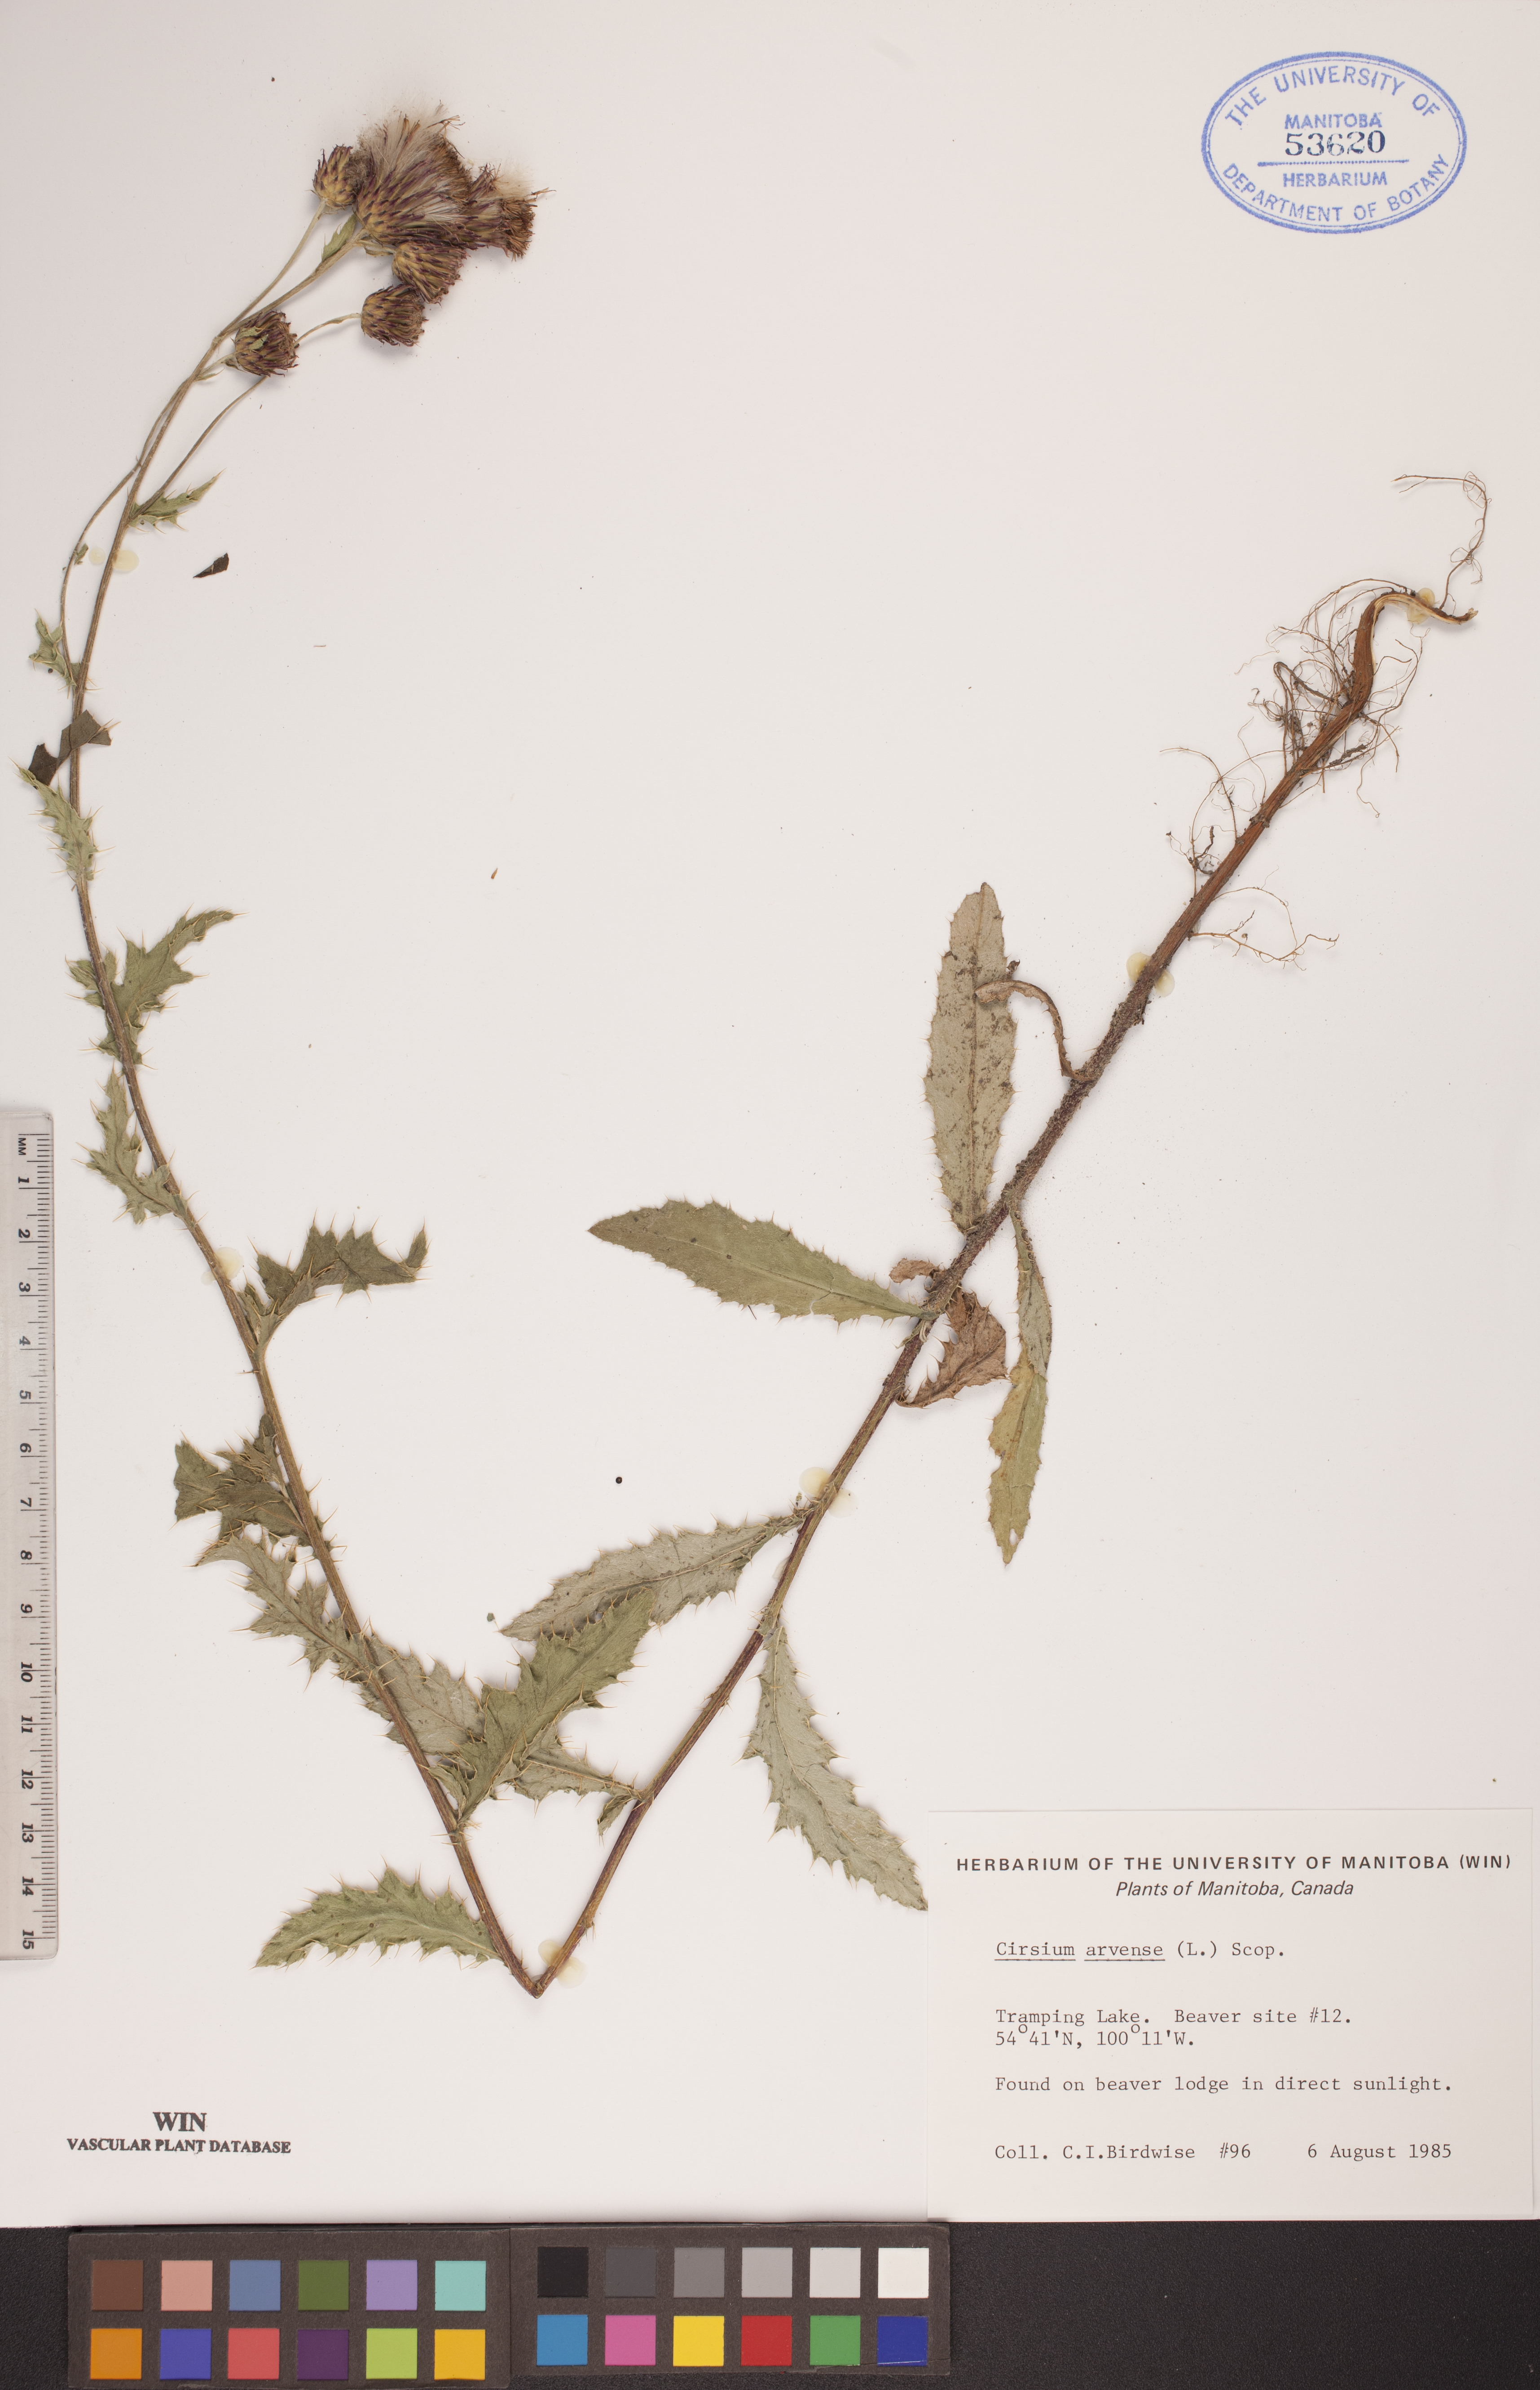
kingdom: Plantae
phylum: Tracheophyta
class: Magnoliopsida
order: Asterales
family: Asteraceae
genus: Cirsium
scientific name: Cirsium arvense
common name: Creeping thistle
